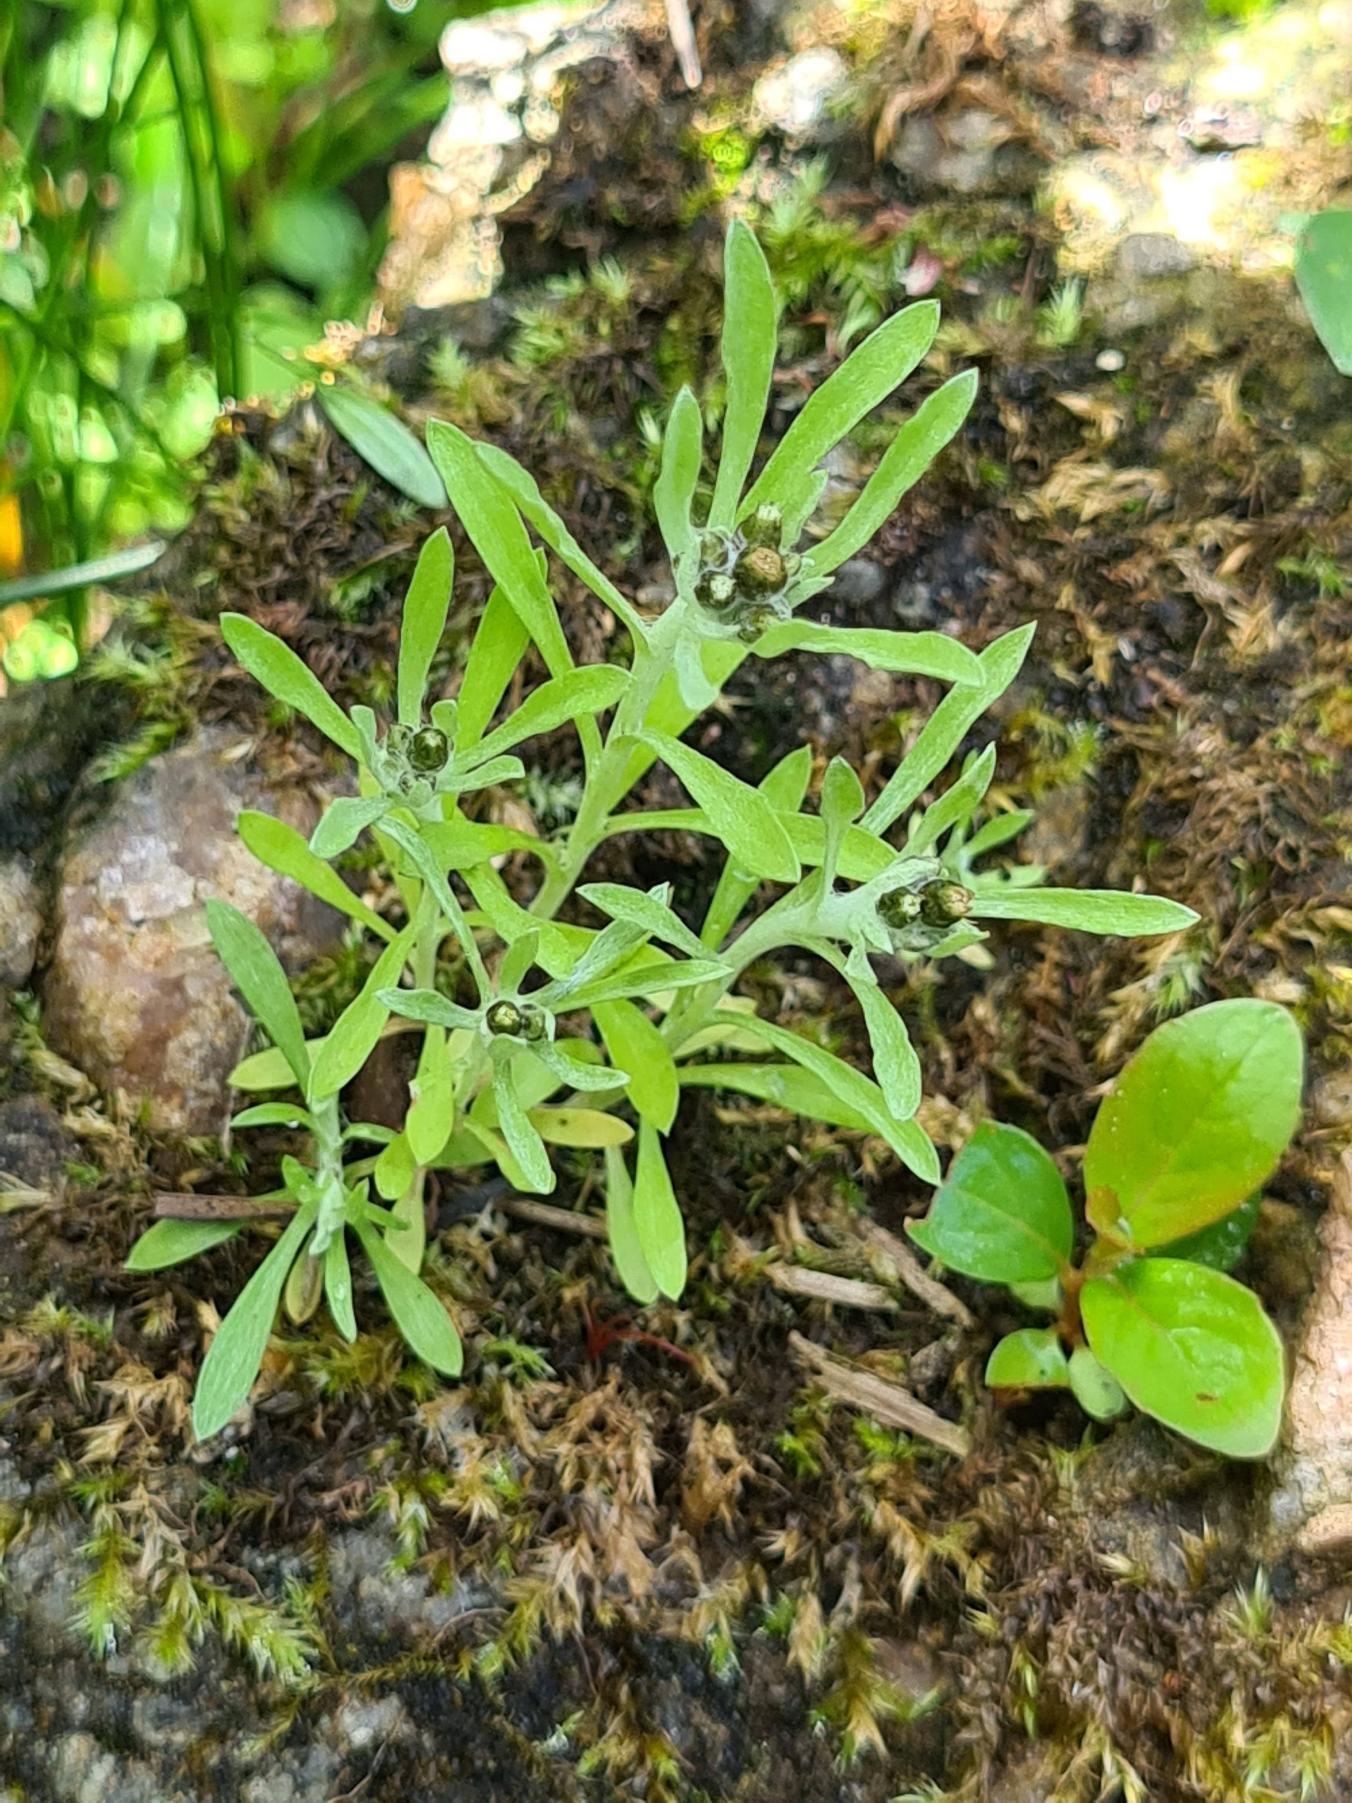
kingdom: Plantae
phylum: Tracheophyta
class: Magnoliopsida
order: Asterales
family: Asteraceae
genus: Gnaphalium
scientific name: Gnaphalium uliginosum
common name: Sump-evighedsblomst
